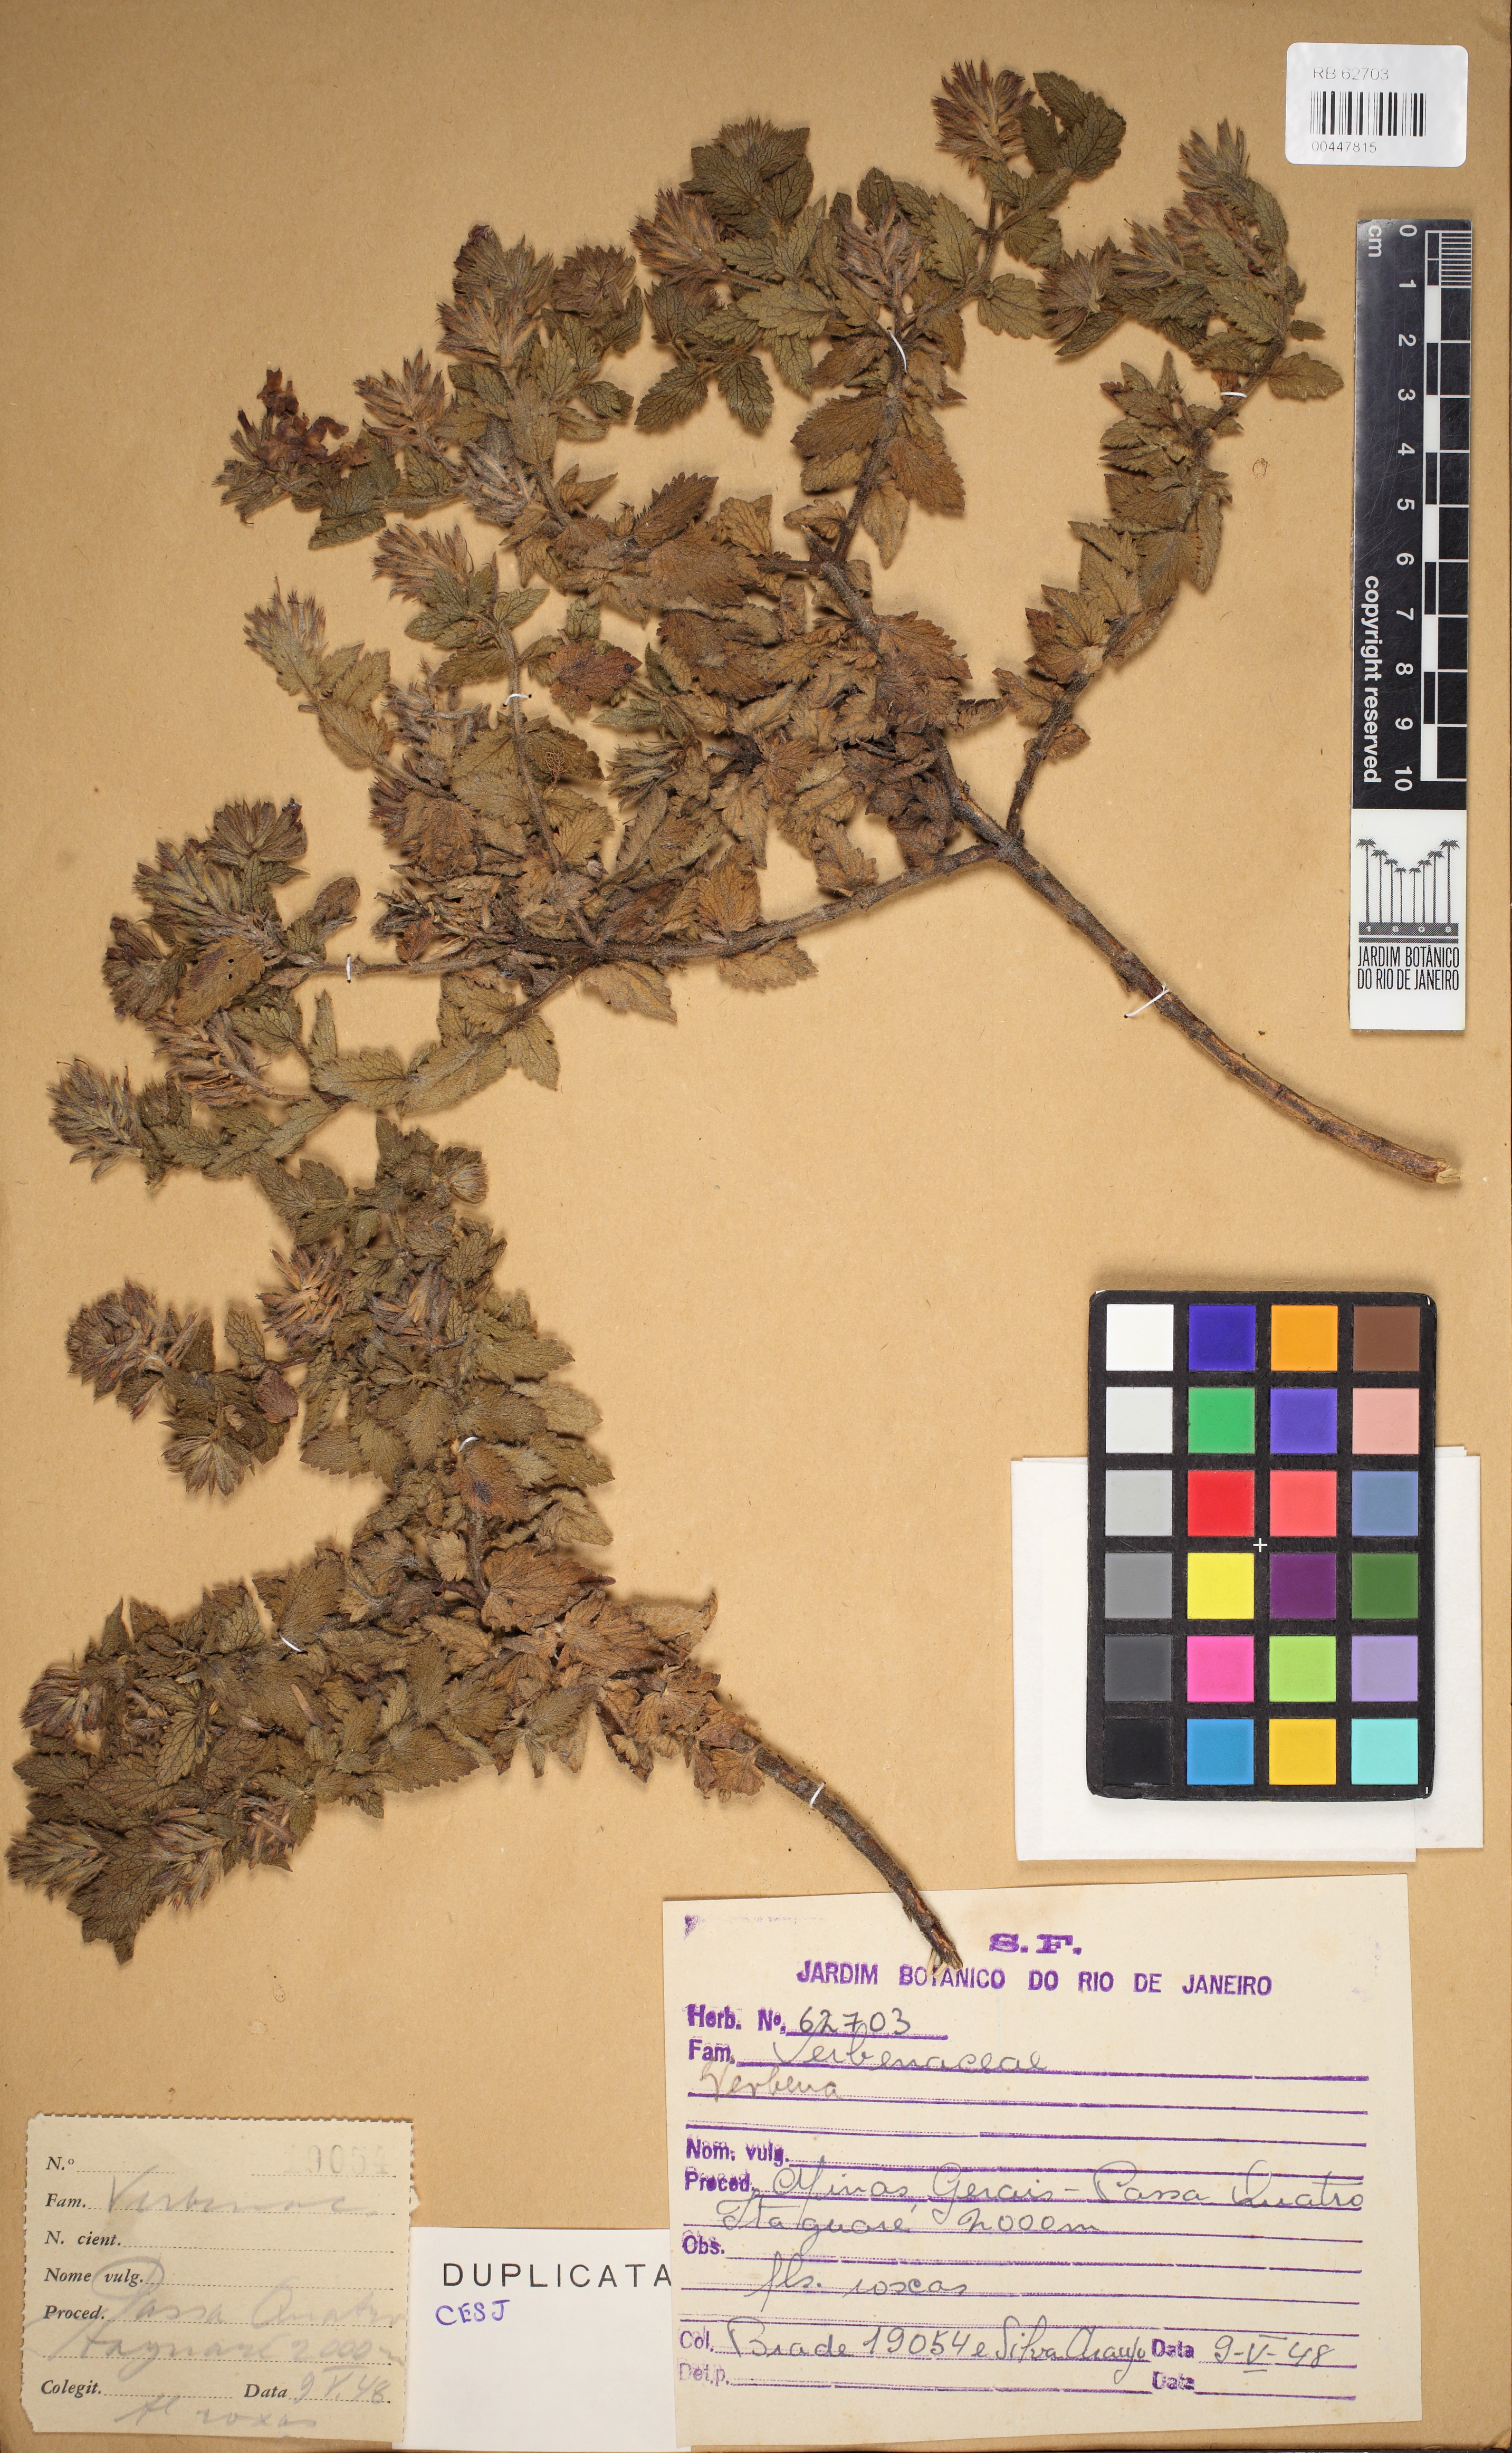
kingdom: Plantae
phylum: Tracheophyta
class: Magnoliopsida
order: Lamiales
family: Verbenaceae
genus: Verbena
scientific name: Verbena
